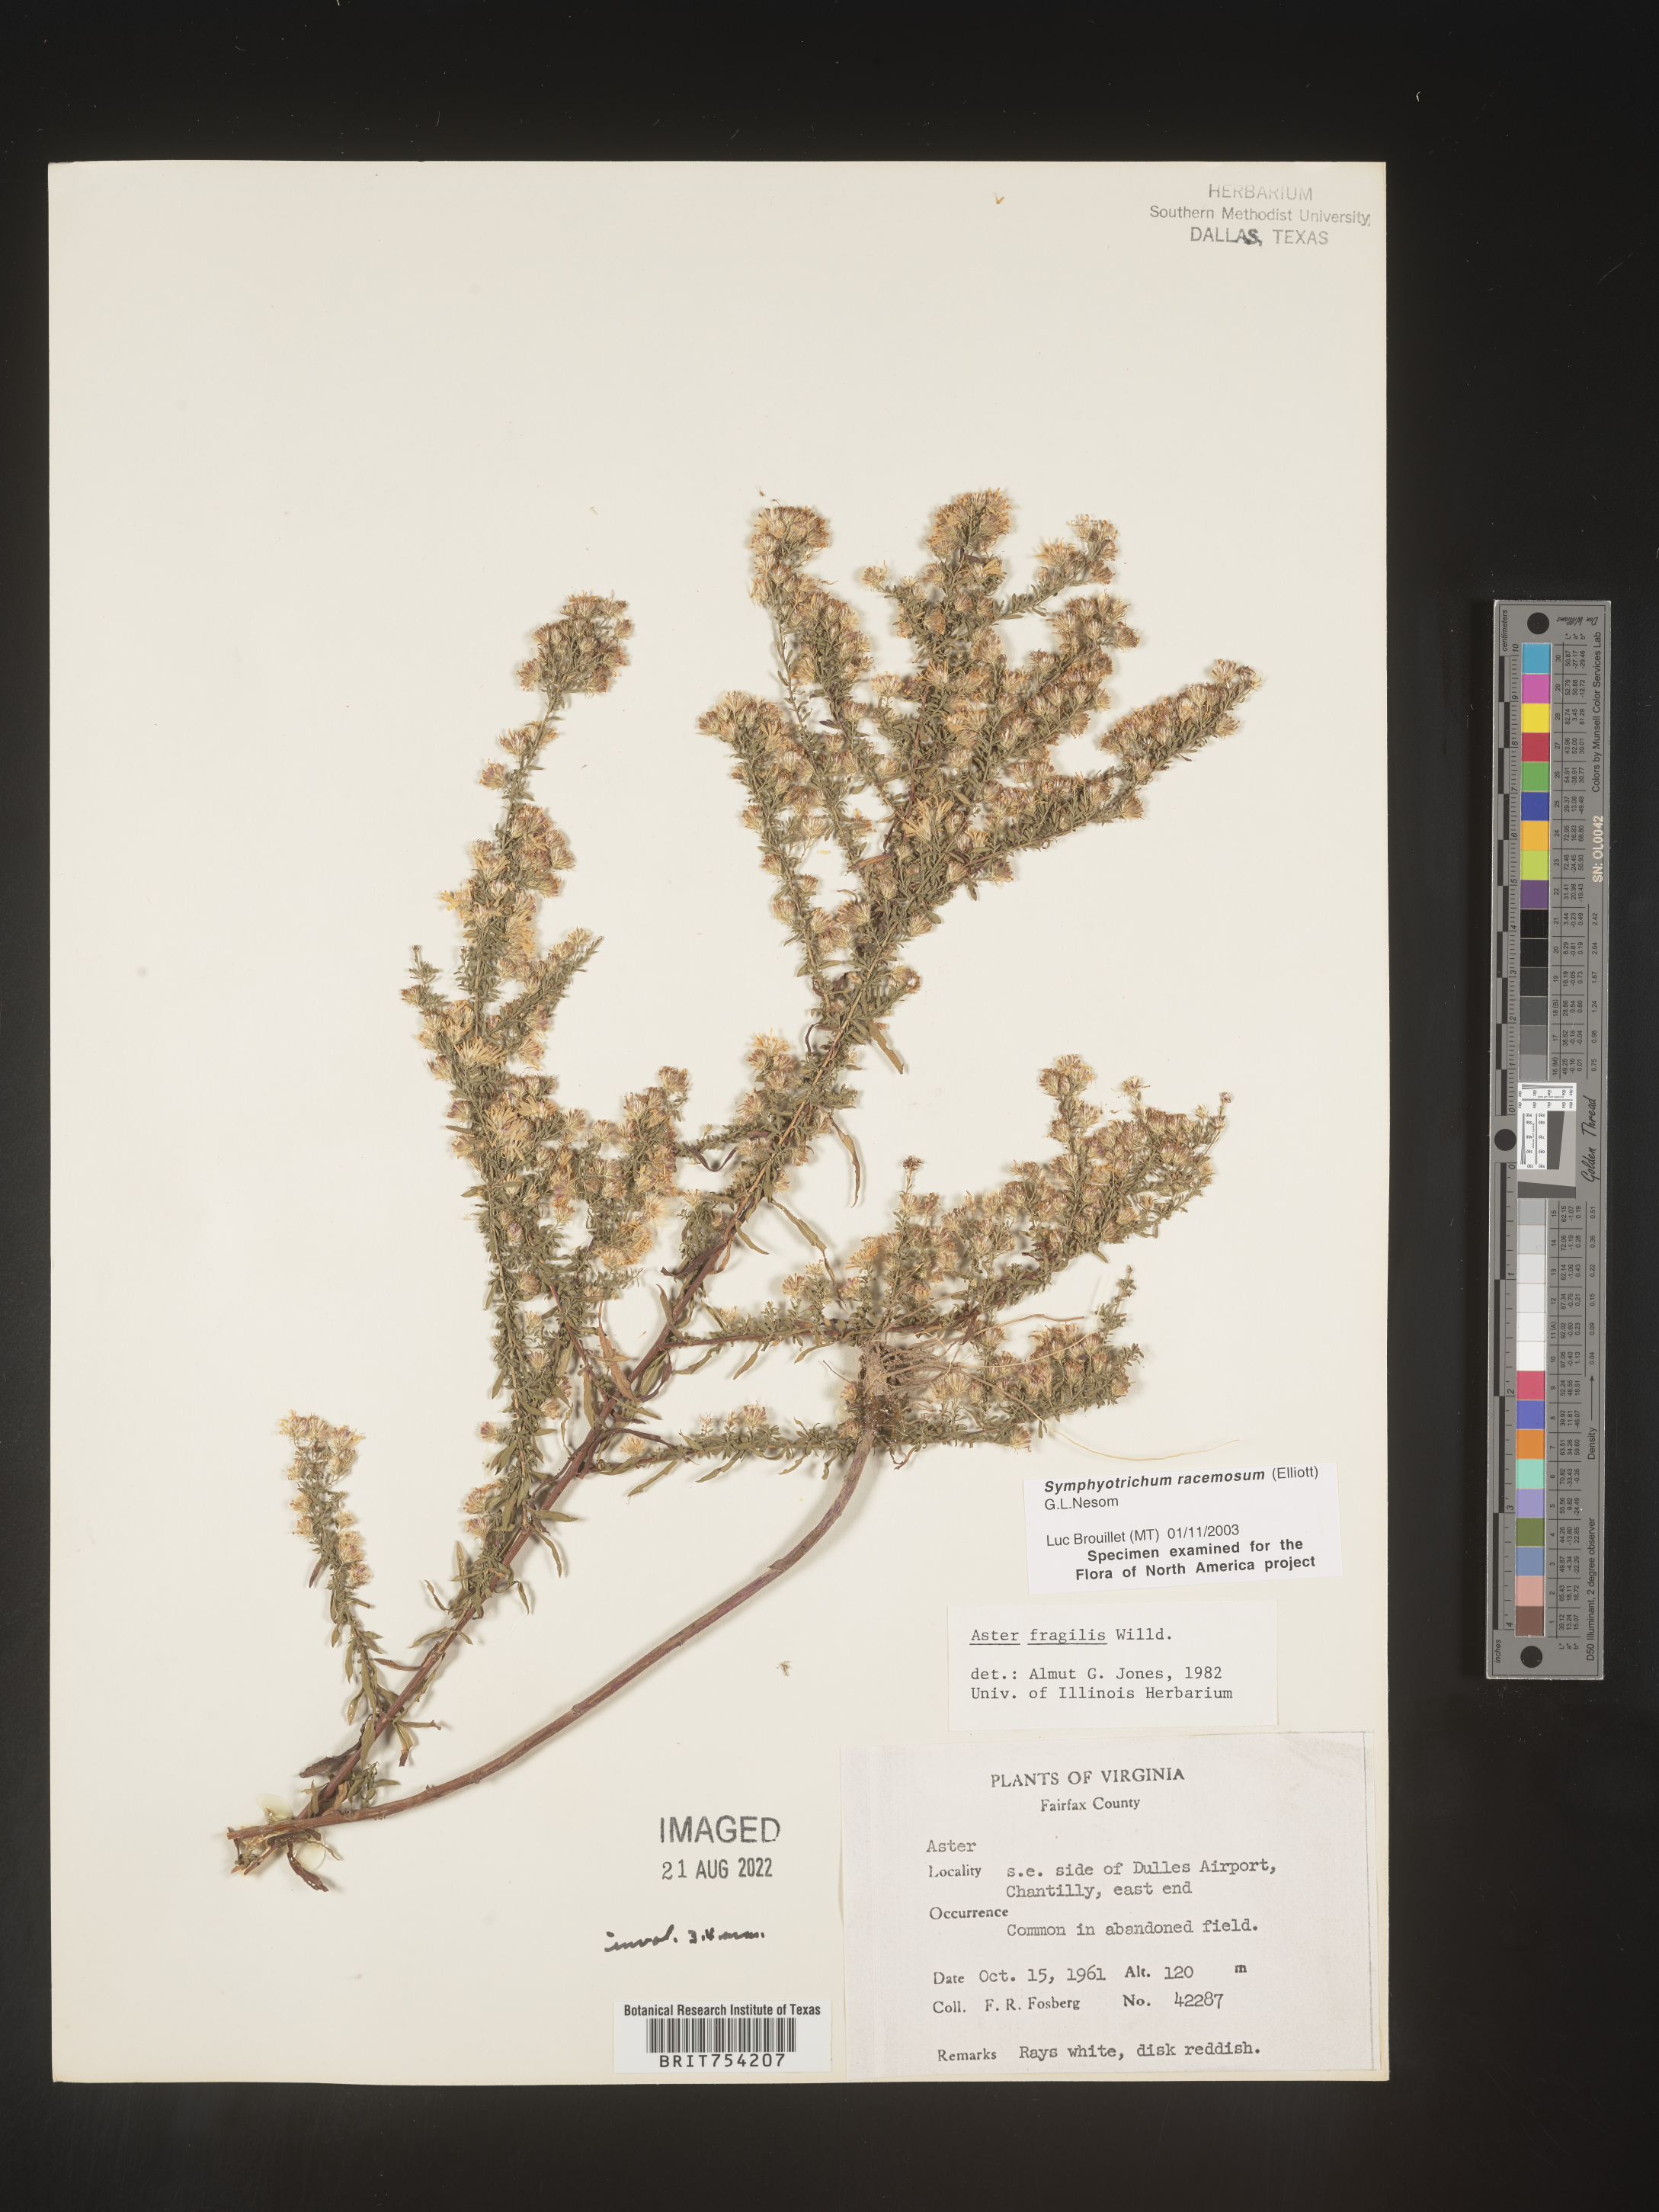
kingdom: Plantae
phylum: Tracheophyta
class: Magnoliopsida
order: Asterales
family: Asteraceae
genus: Symphyotrichum
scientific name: Symphyotrichum racemosum
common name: Small white aster
